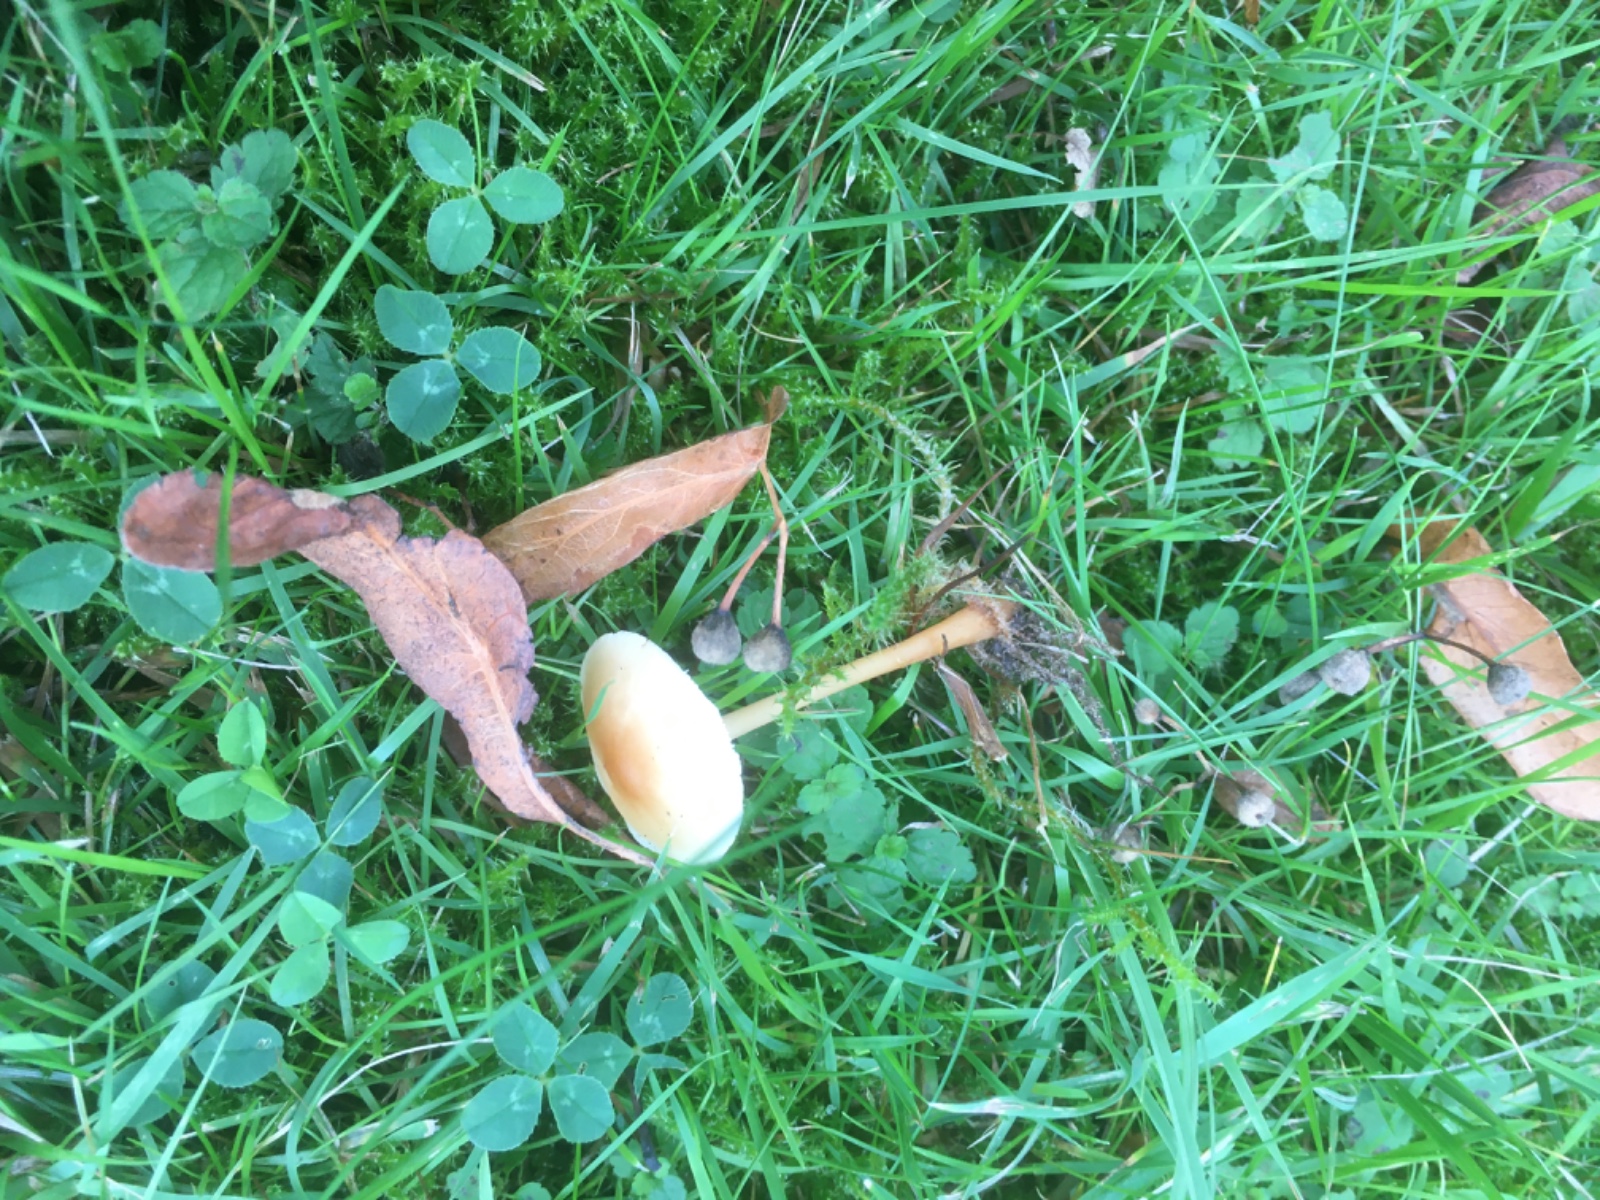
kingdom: Fungi
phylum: Basidiomycota
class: Agaricomycetes
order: Agaricales
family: Omphalotaceae
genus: Gymnopus
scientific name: Gymnopus dryophilus
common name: løv-fladhat
